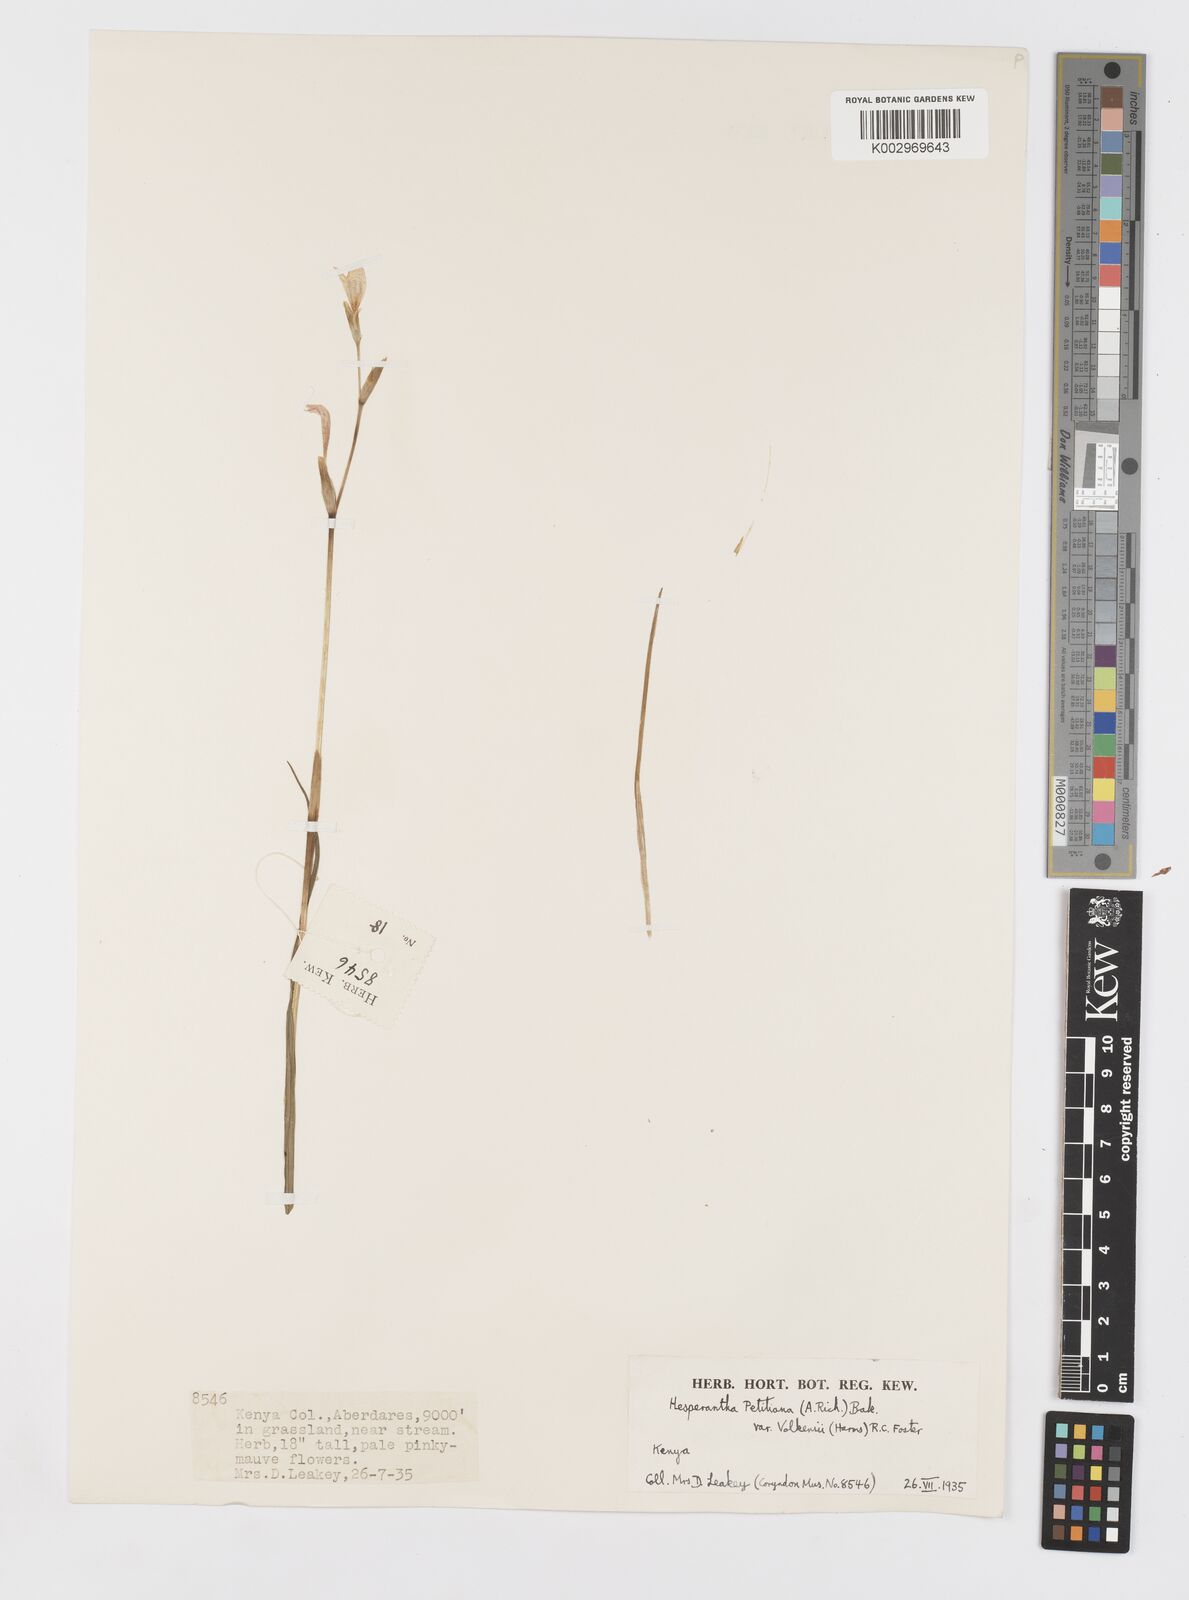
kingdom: Plantae
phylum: Tracheophyta
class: Liliopsida
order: Asparagales
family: Iridaceae
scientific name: Iridaceae
